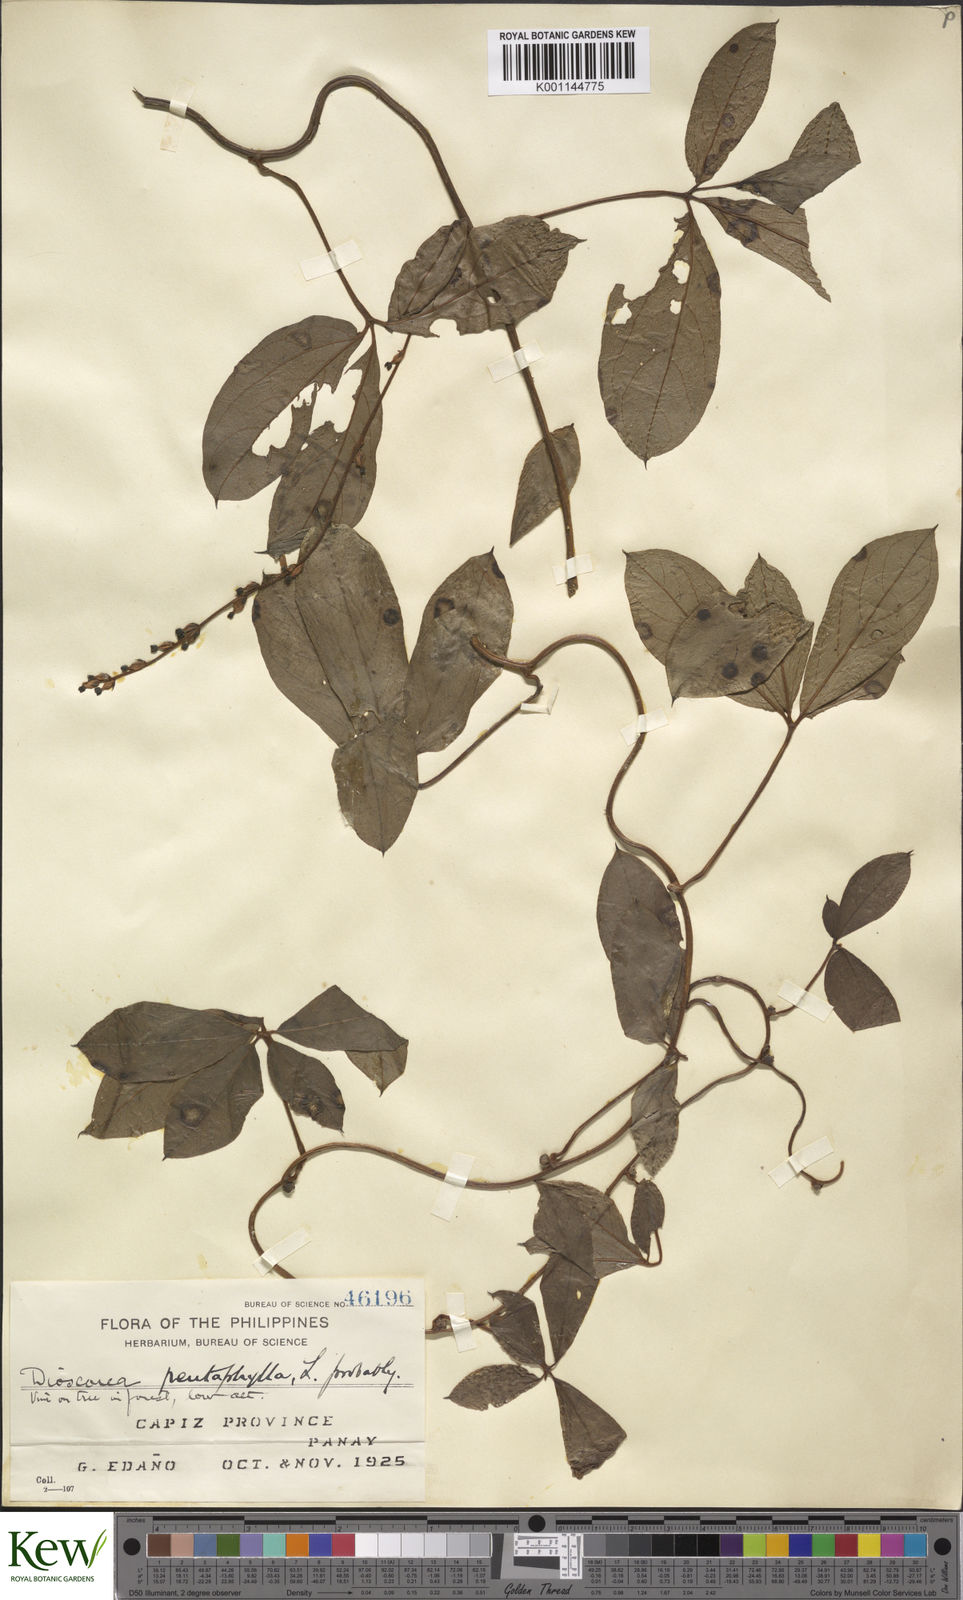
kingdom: Plantae
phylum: Tracheophyta
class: Liliopsida
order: Dioscoreales
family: Dioscoreaceae
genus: Dioscorea
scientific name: Dioscorea pentaphylla
